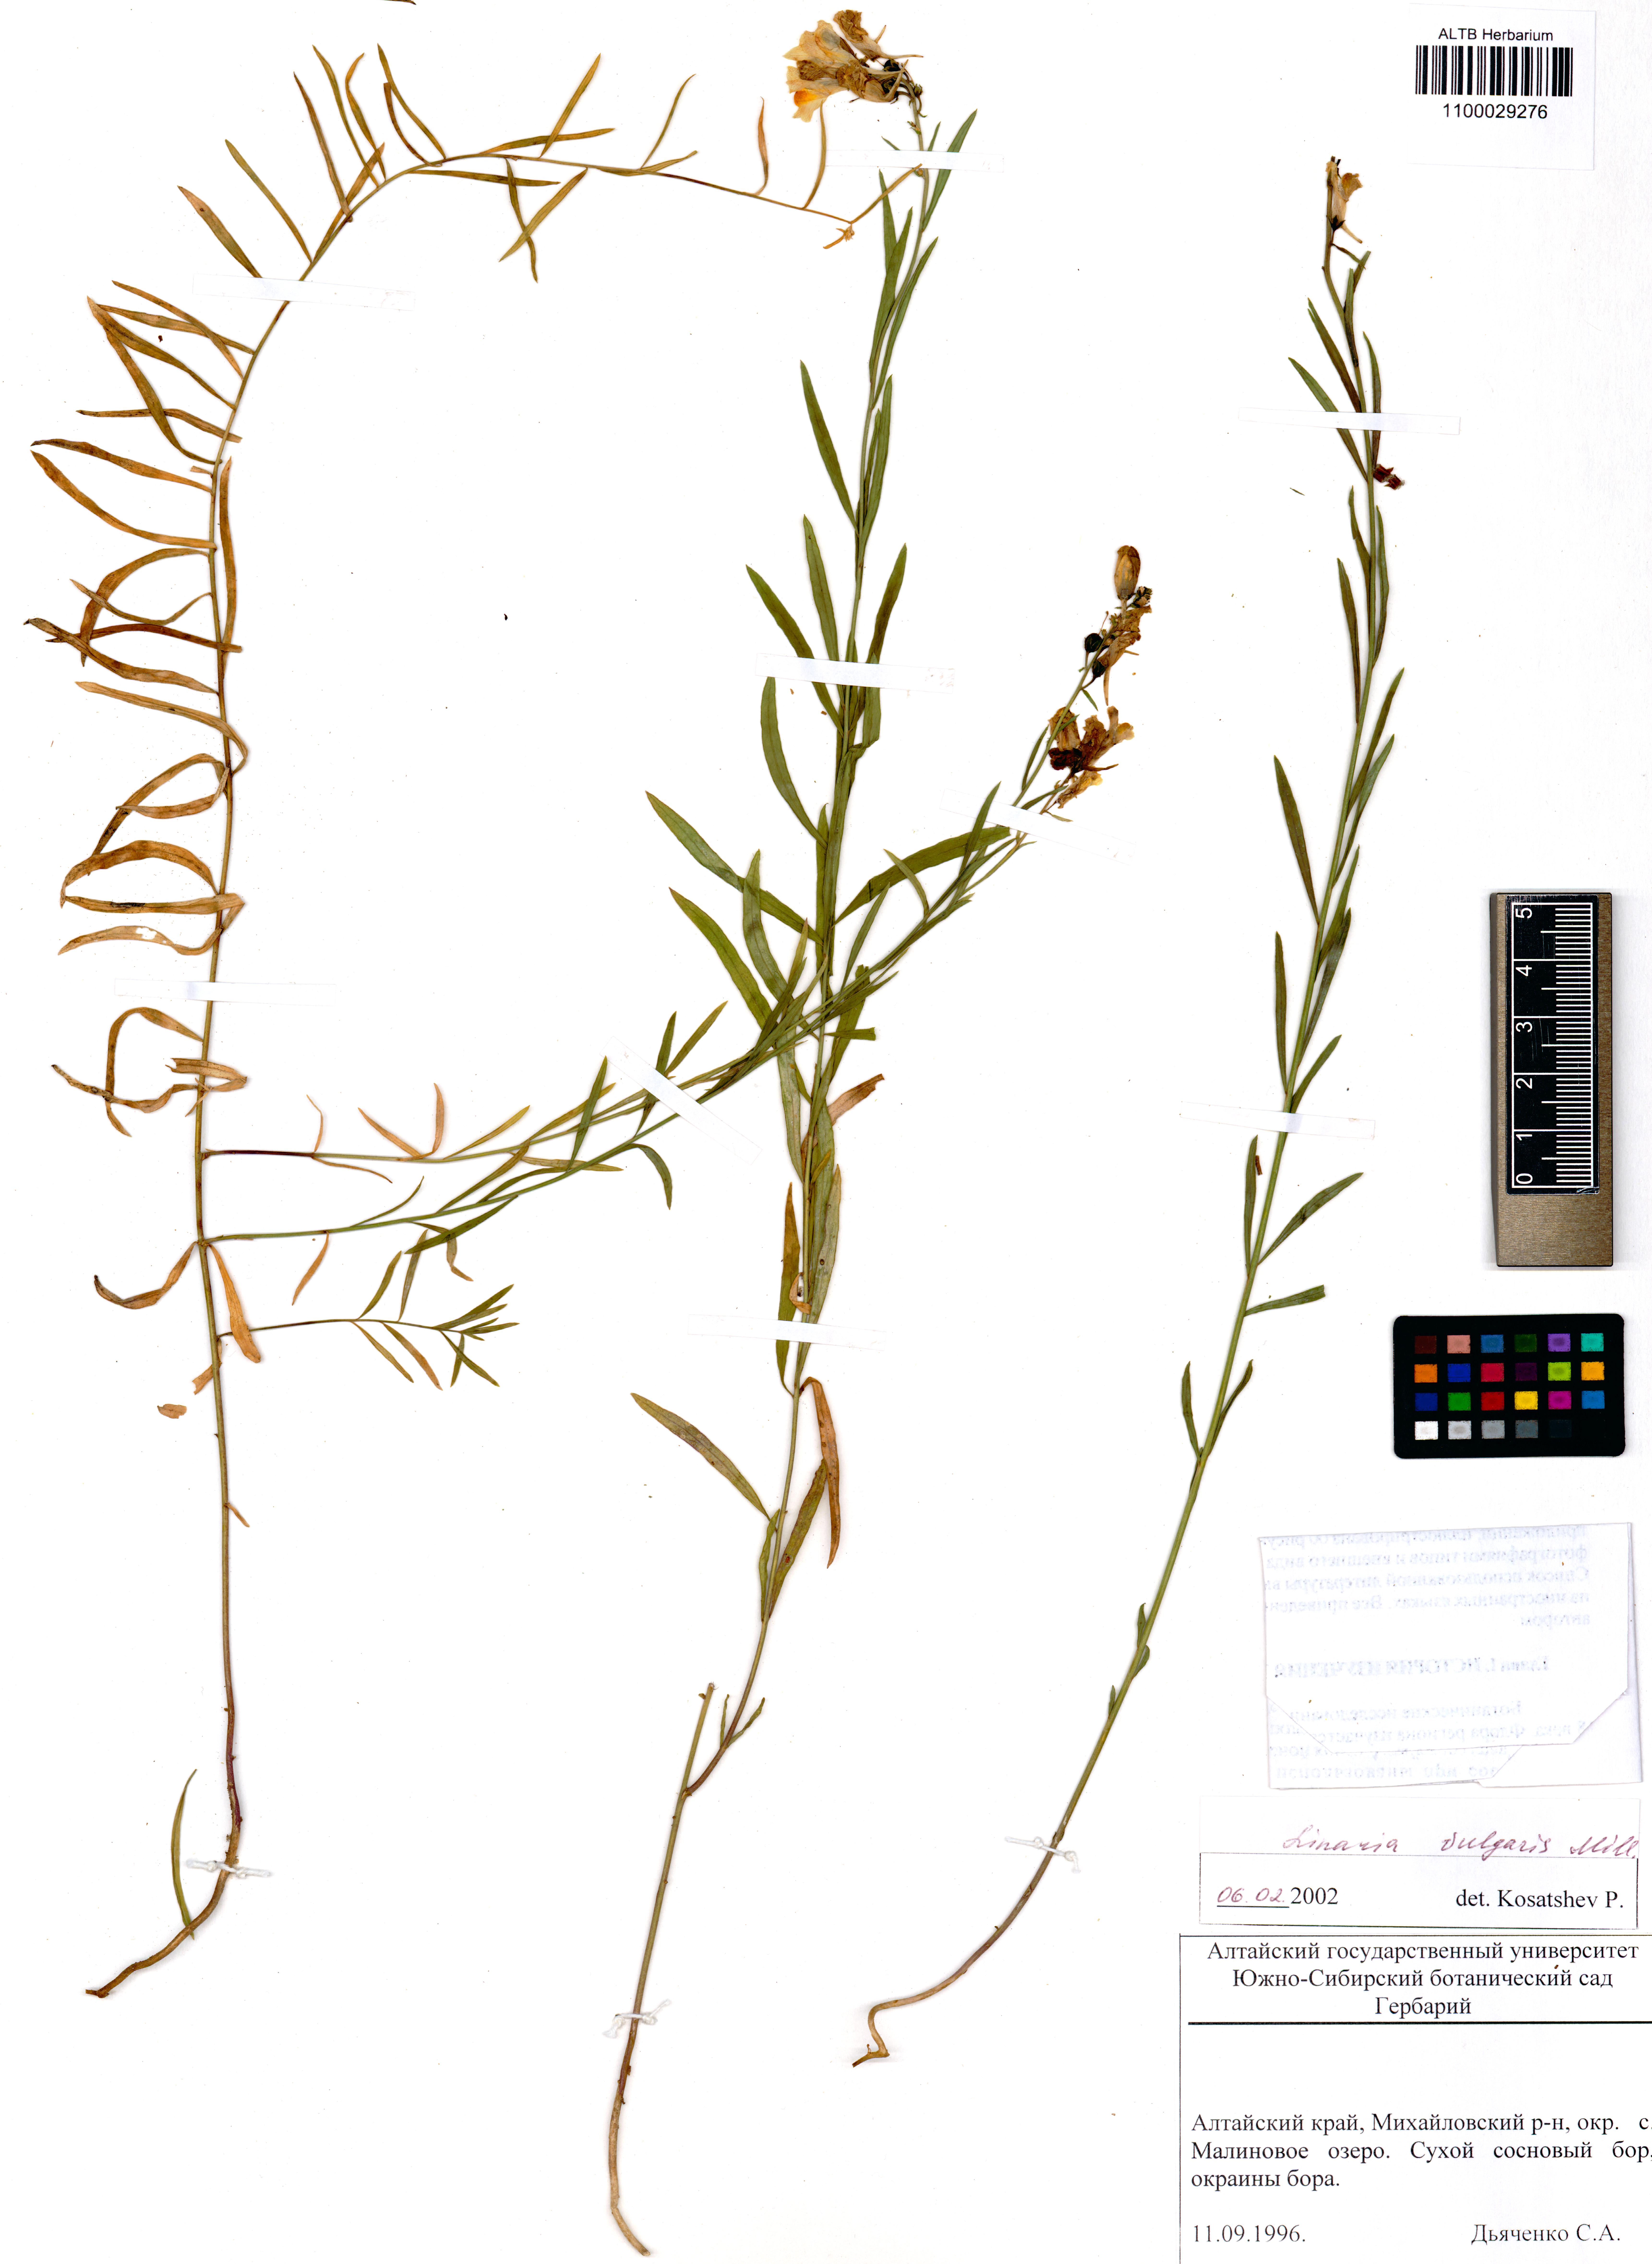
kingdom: Plantae
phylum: Tracheophyta
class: Magnoliopsida
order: Lamiales
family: Plantaginaceae
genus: Linaria
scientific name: Linaria vulgaris
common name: Butter and eggs
